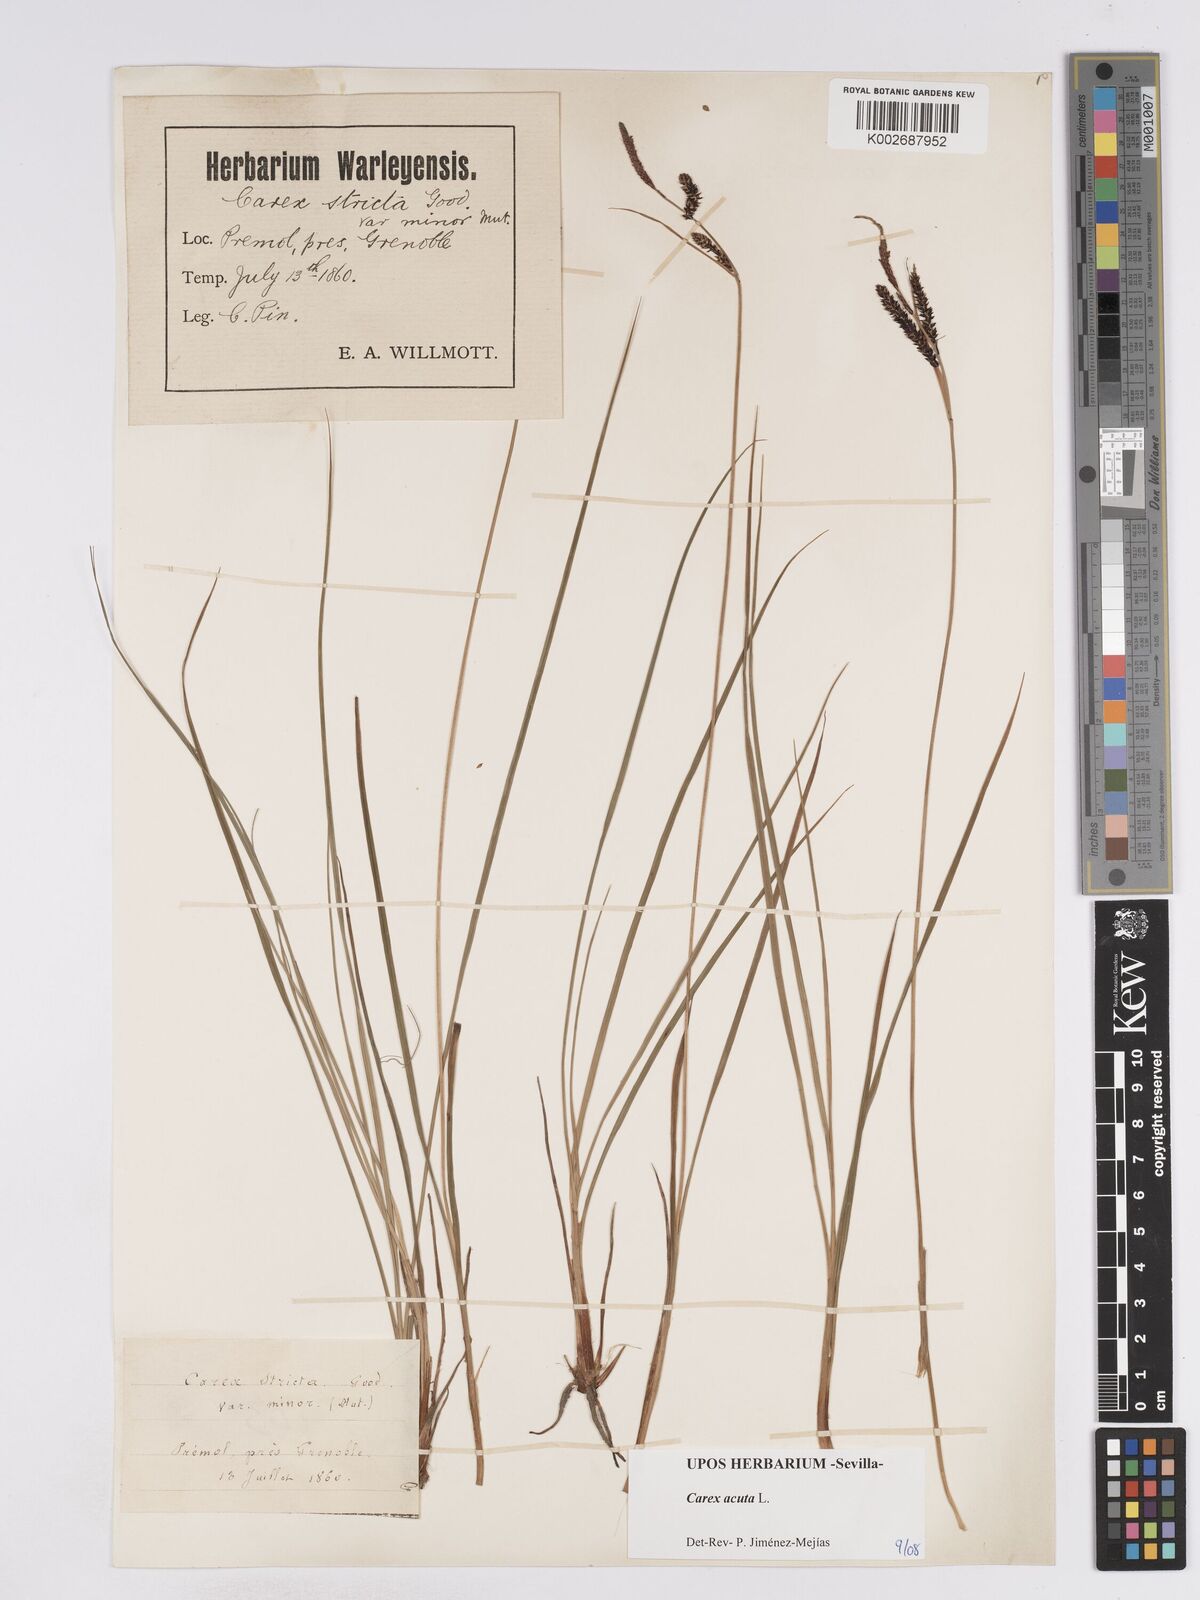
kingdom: Plantae
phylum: Tracheophyta
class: Liliopsida
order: Poales
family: Cyperaceae
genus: Carex
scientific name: Carex acuta
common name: Slender tufted-sedge
